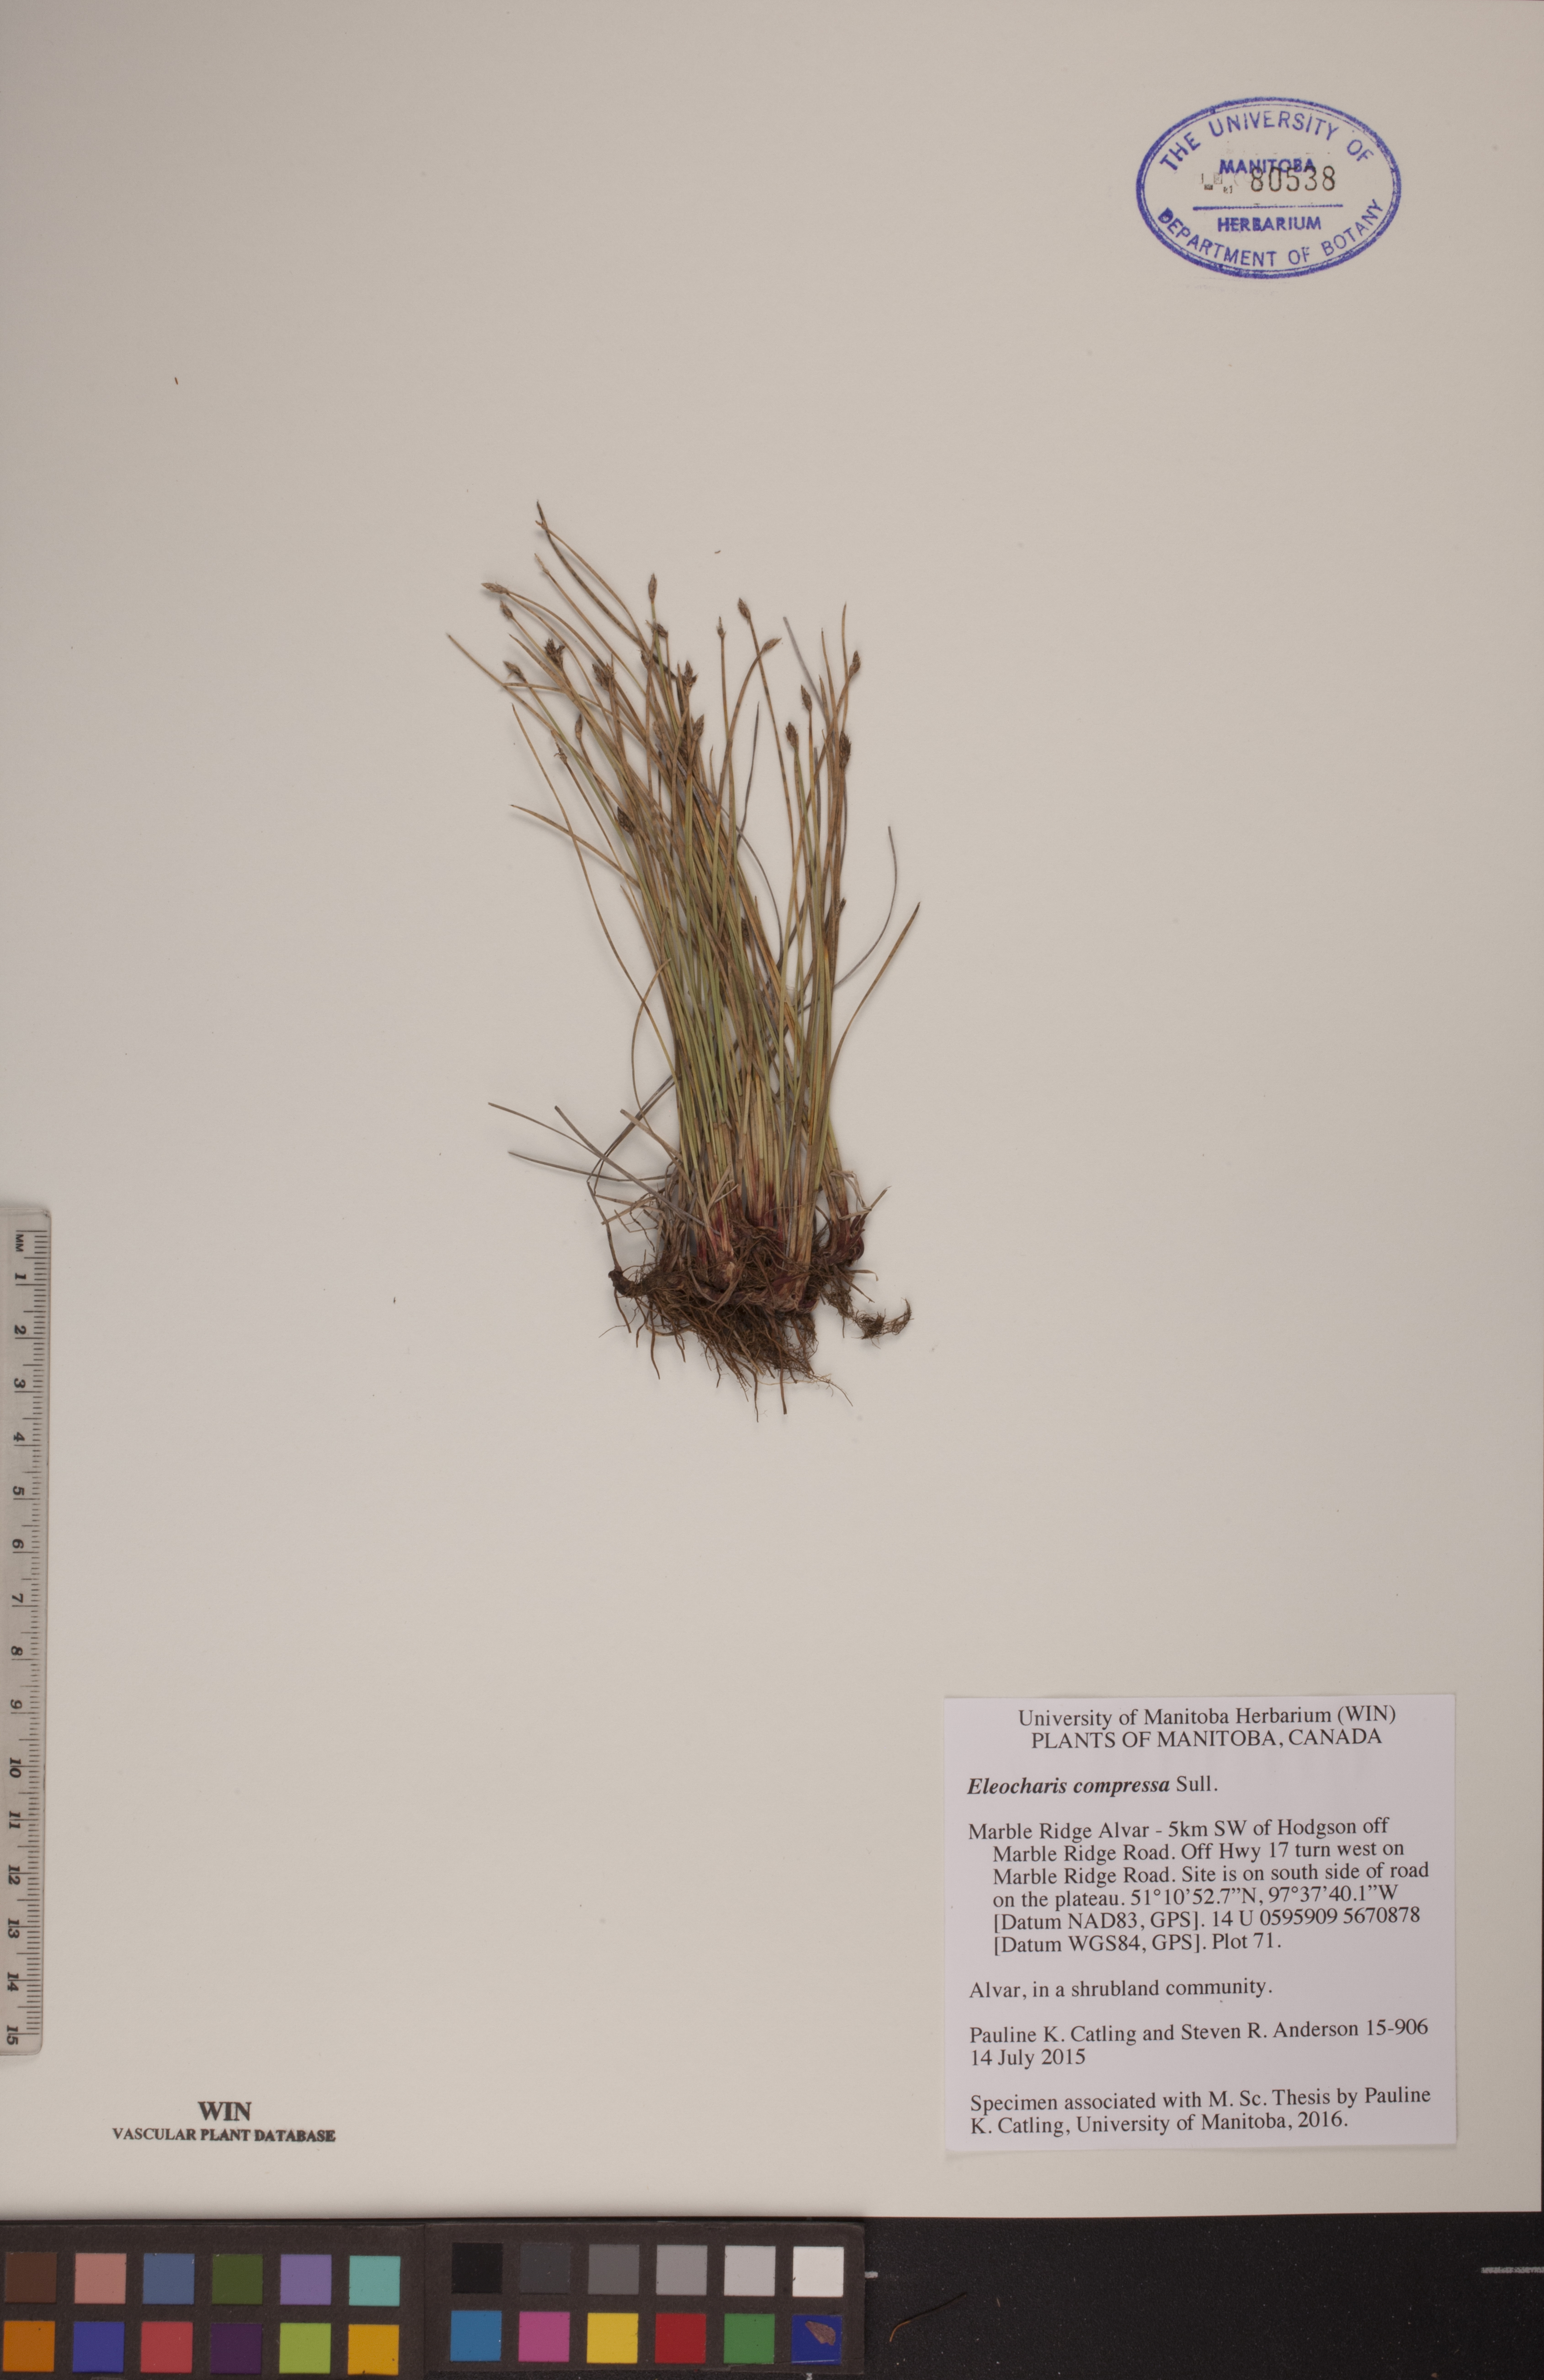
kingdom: Plantae
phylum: Tracheophyta
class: Liliopsida
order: Poales
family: Cyperaceae
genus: Eleocharis
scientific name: Eleocharis compressa
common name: Flat-stem spike-rush
